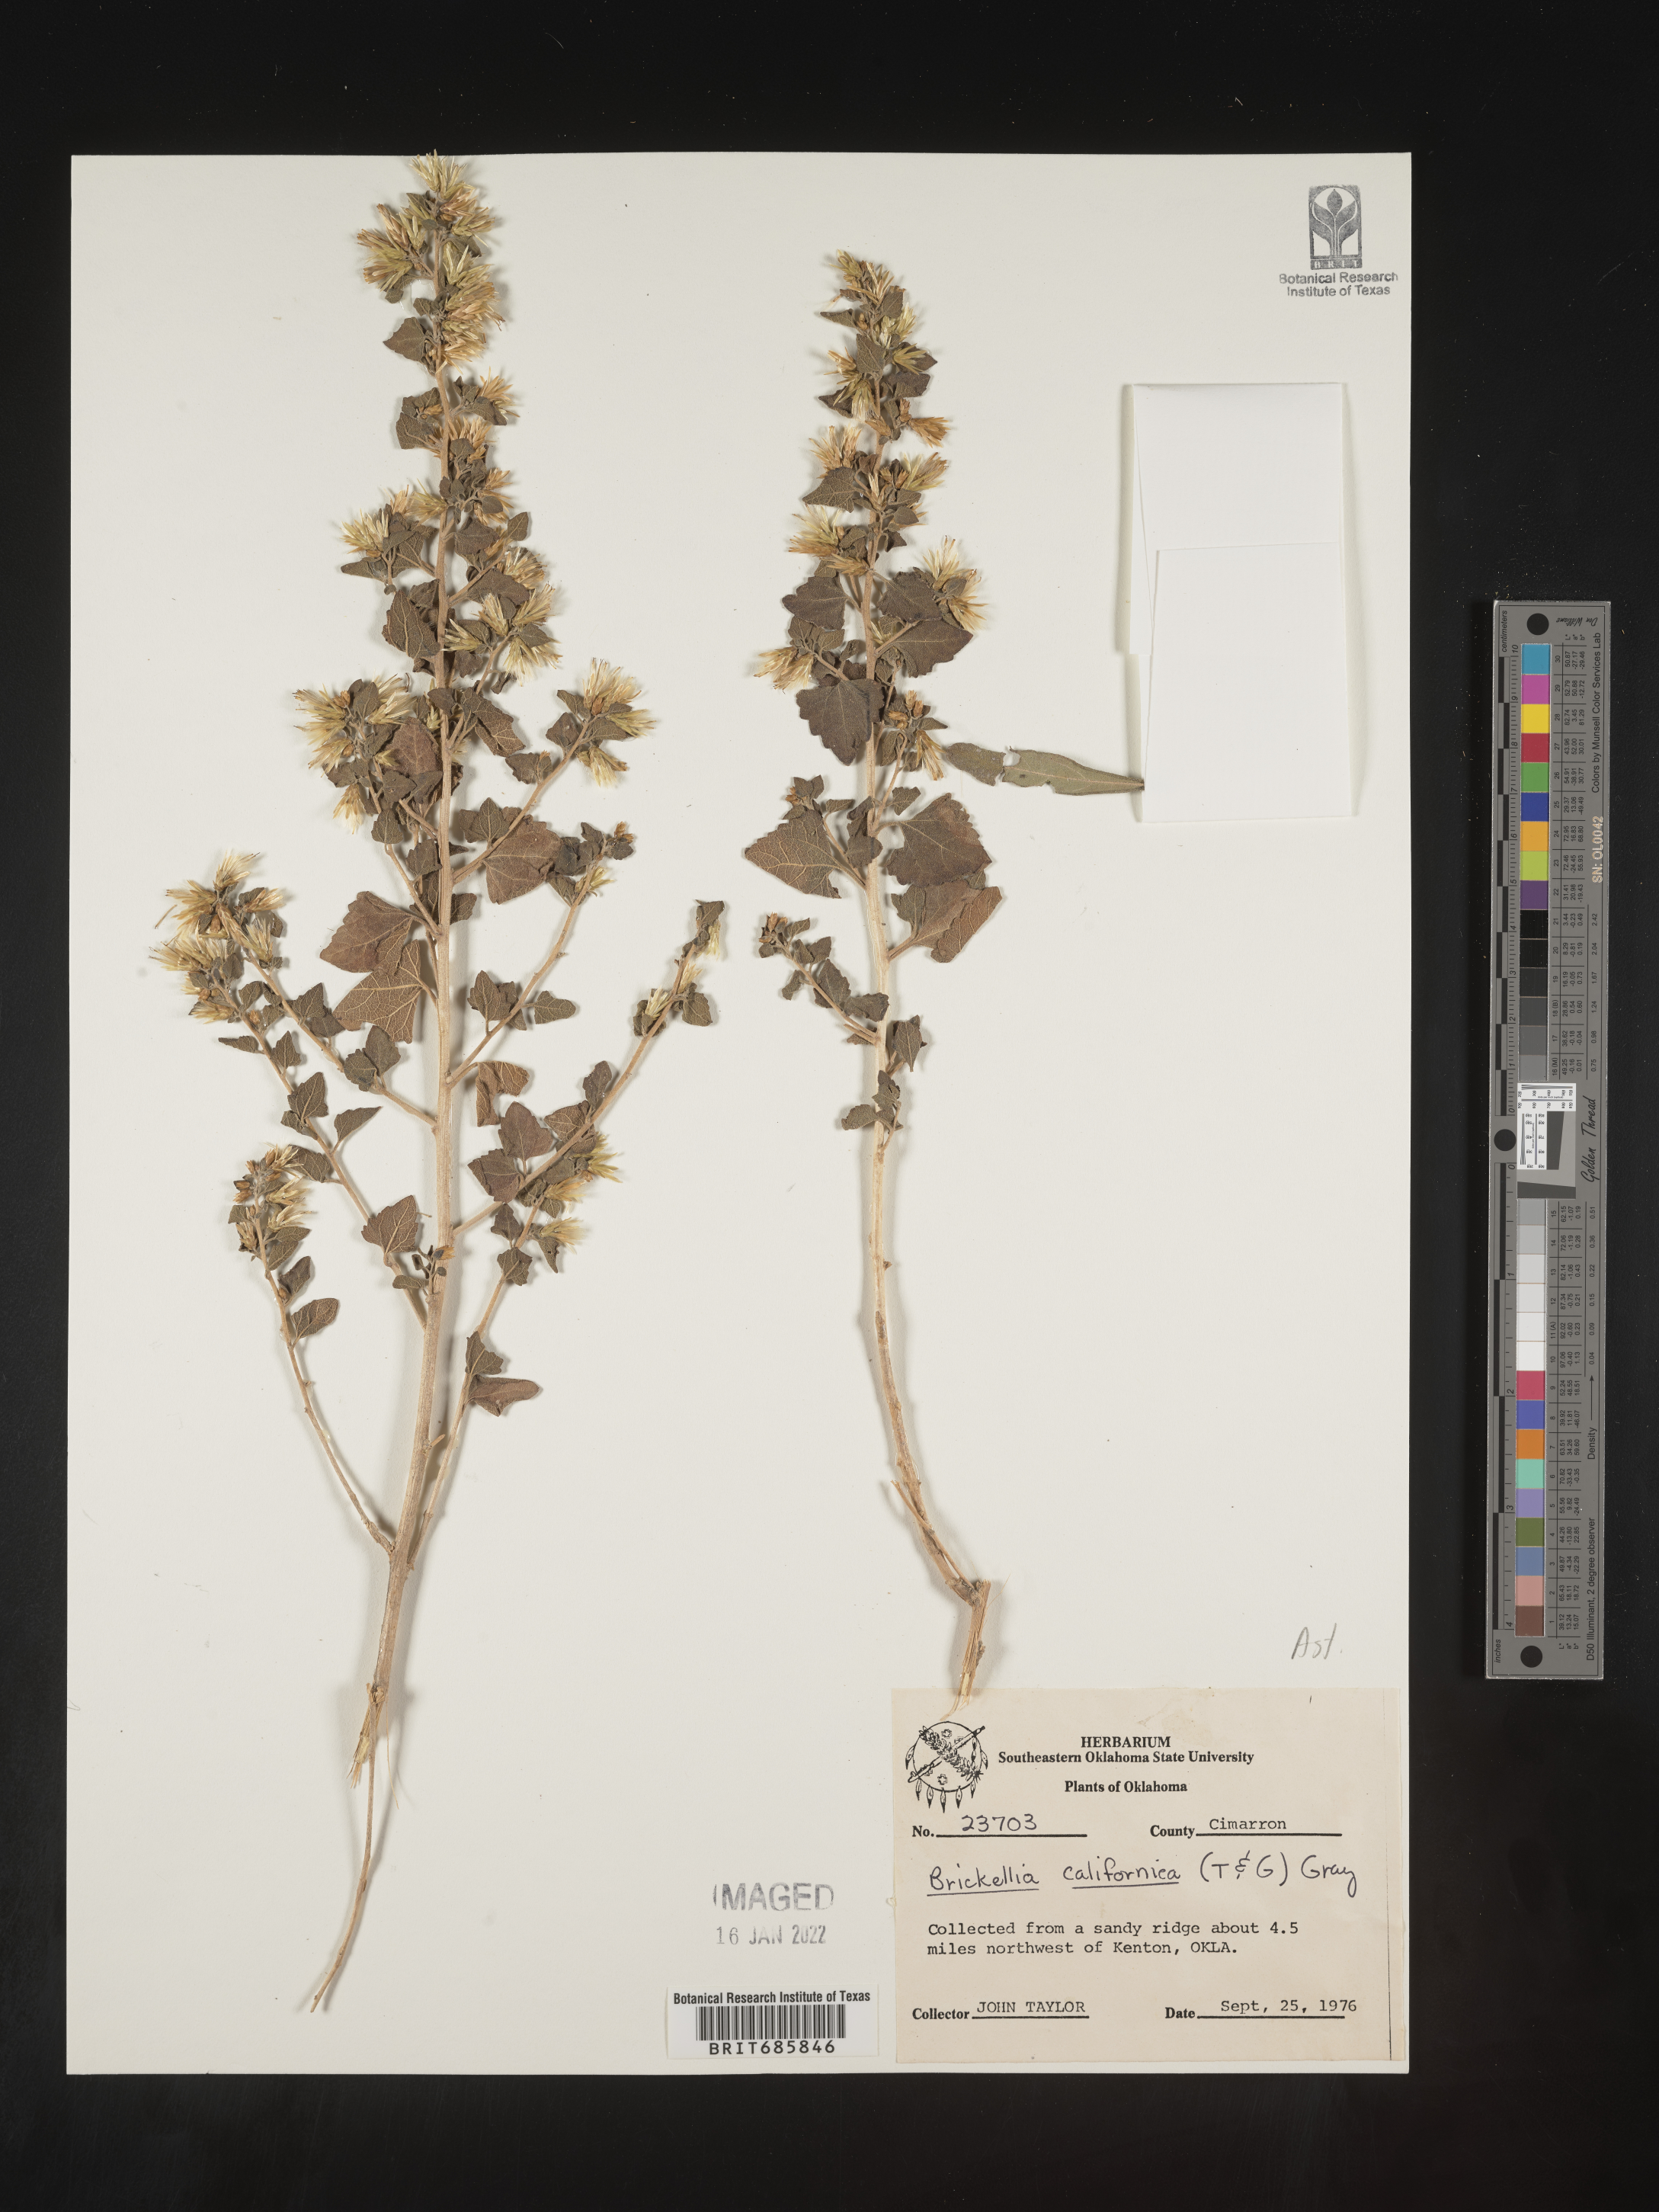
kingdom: Plantae
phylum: Tracheophyta
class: Magnoliopsida
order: Asterales
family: Asteraceae
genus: Brickellia
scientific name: Brickellia californica
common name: California brickellbush
